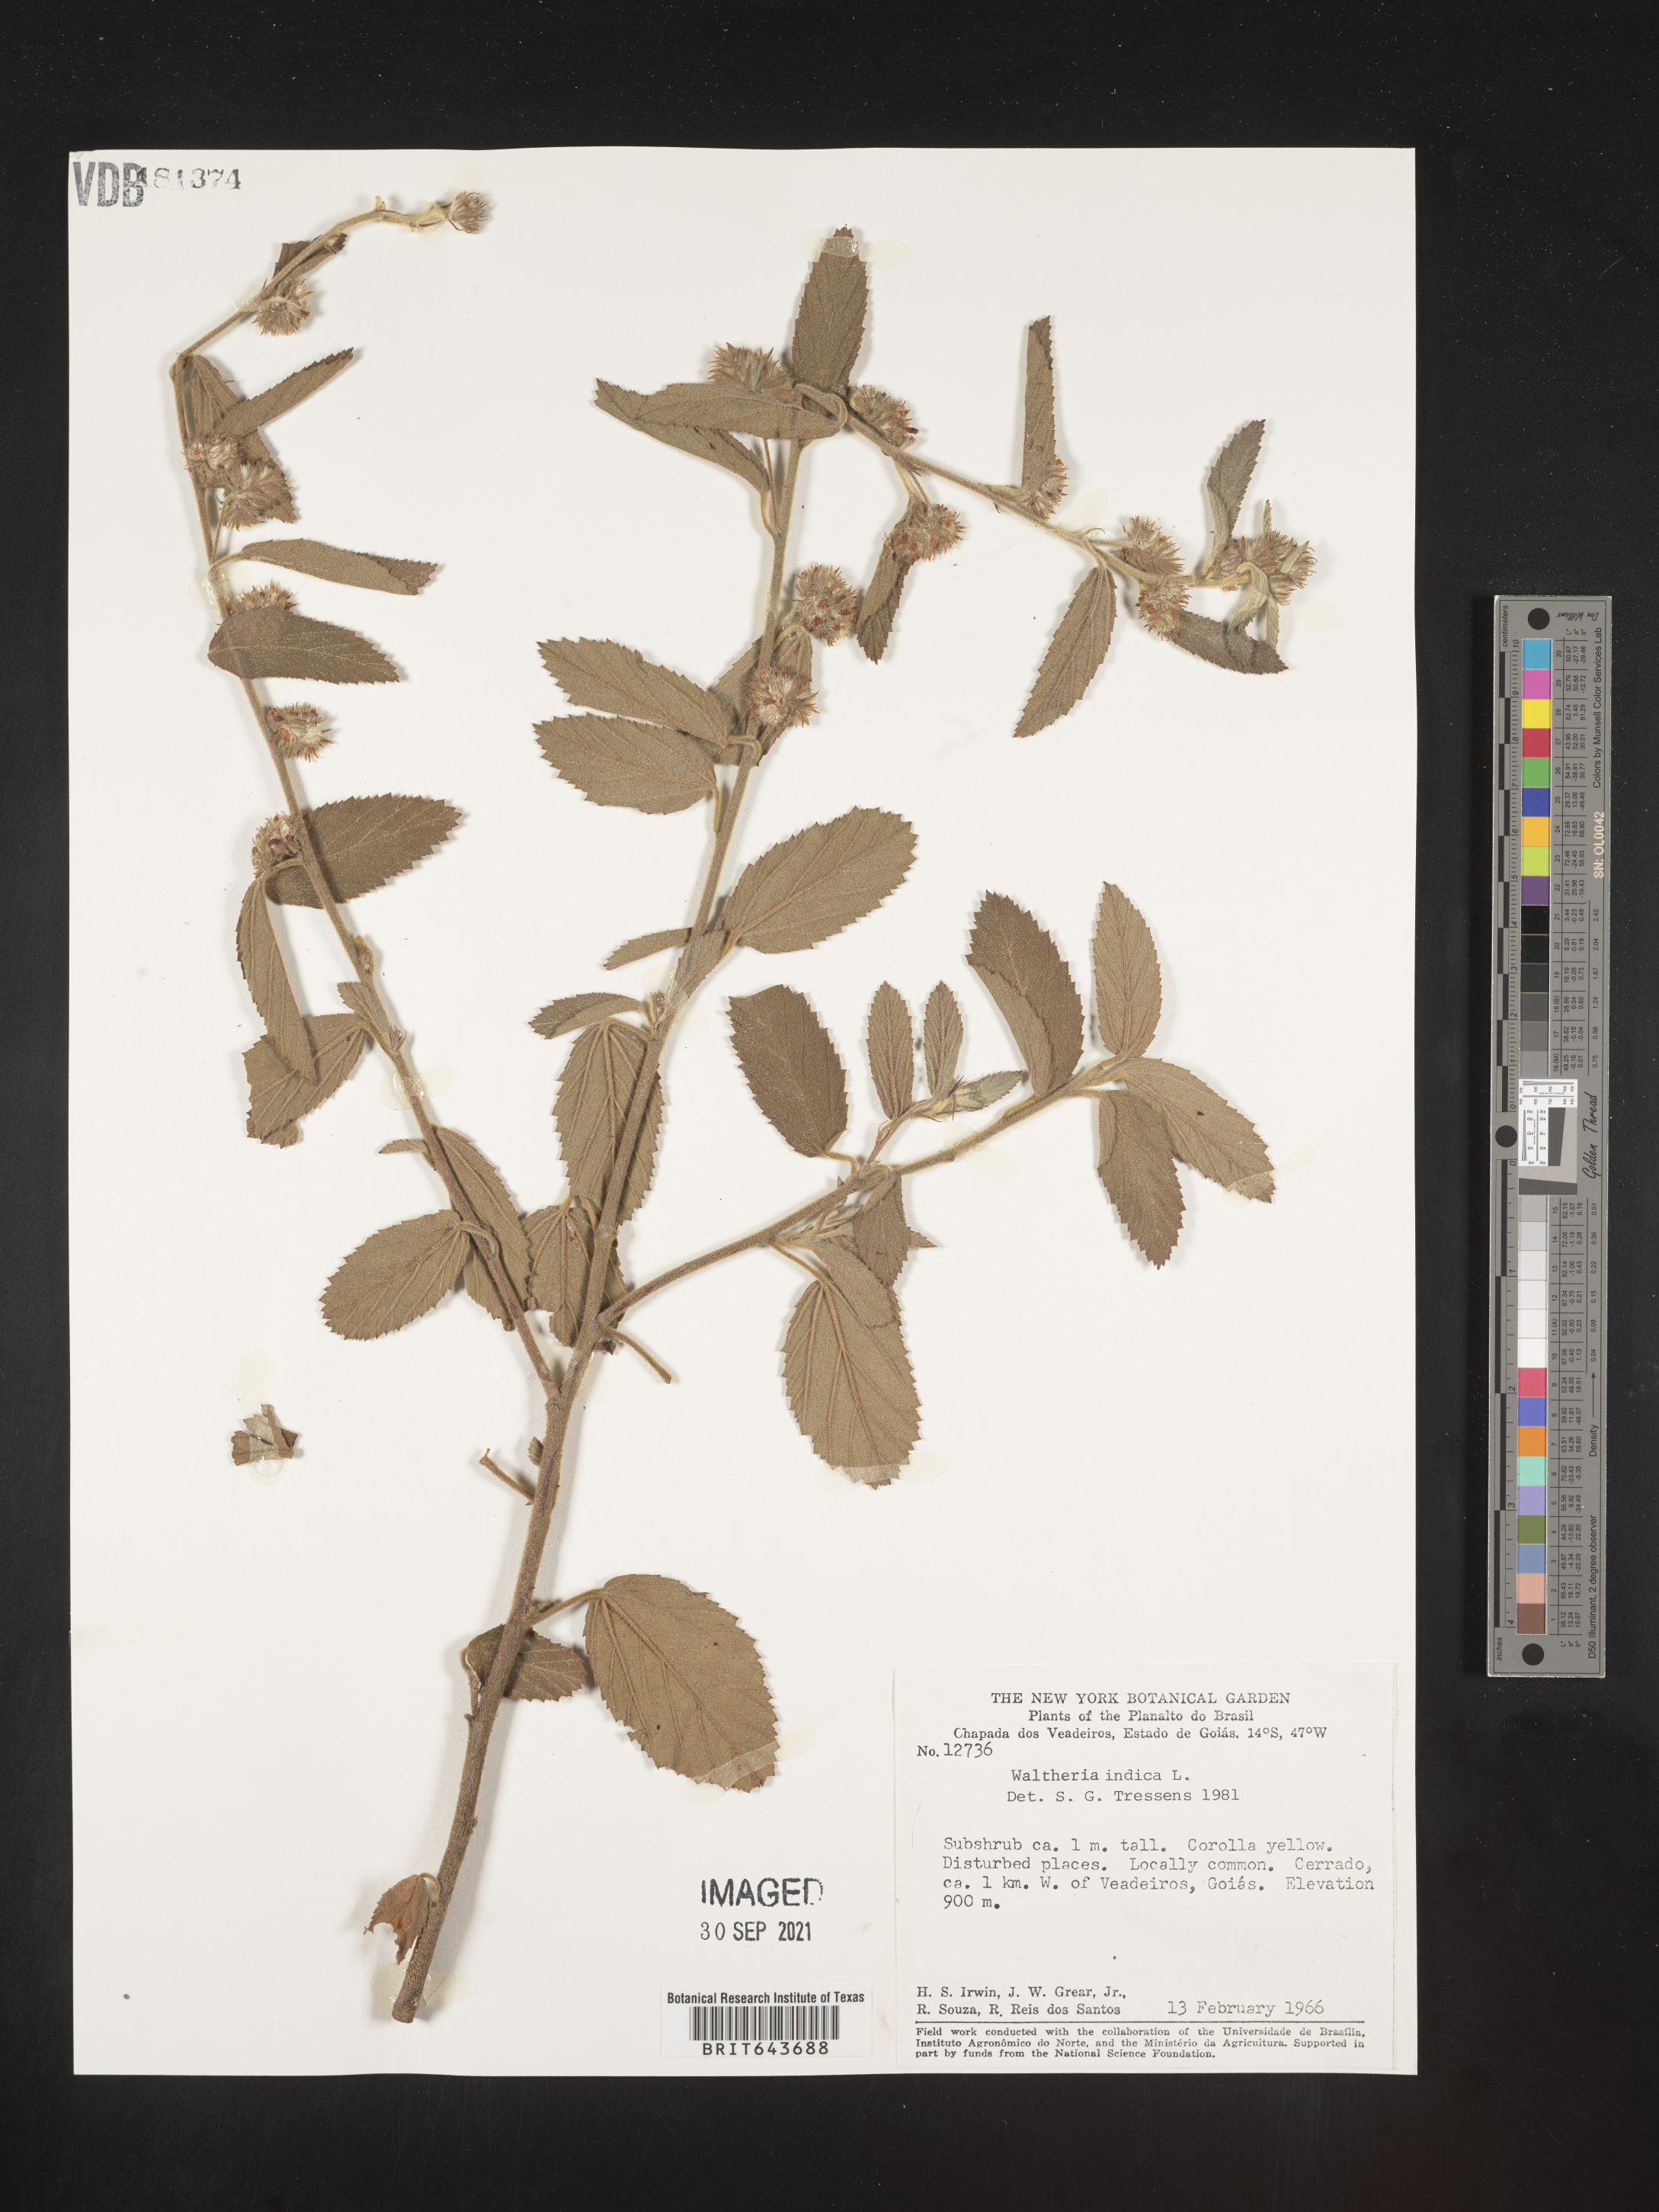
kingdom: Plantae
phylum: Tracheophyta
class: Magnoliopsida
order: Malvales
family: Malvaceae
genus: Waltheria
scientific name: Waltheria
